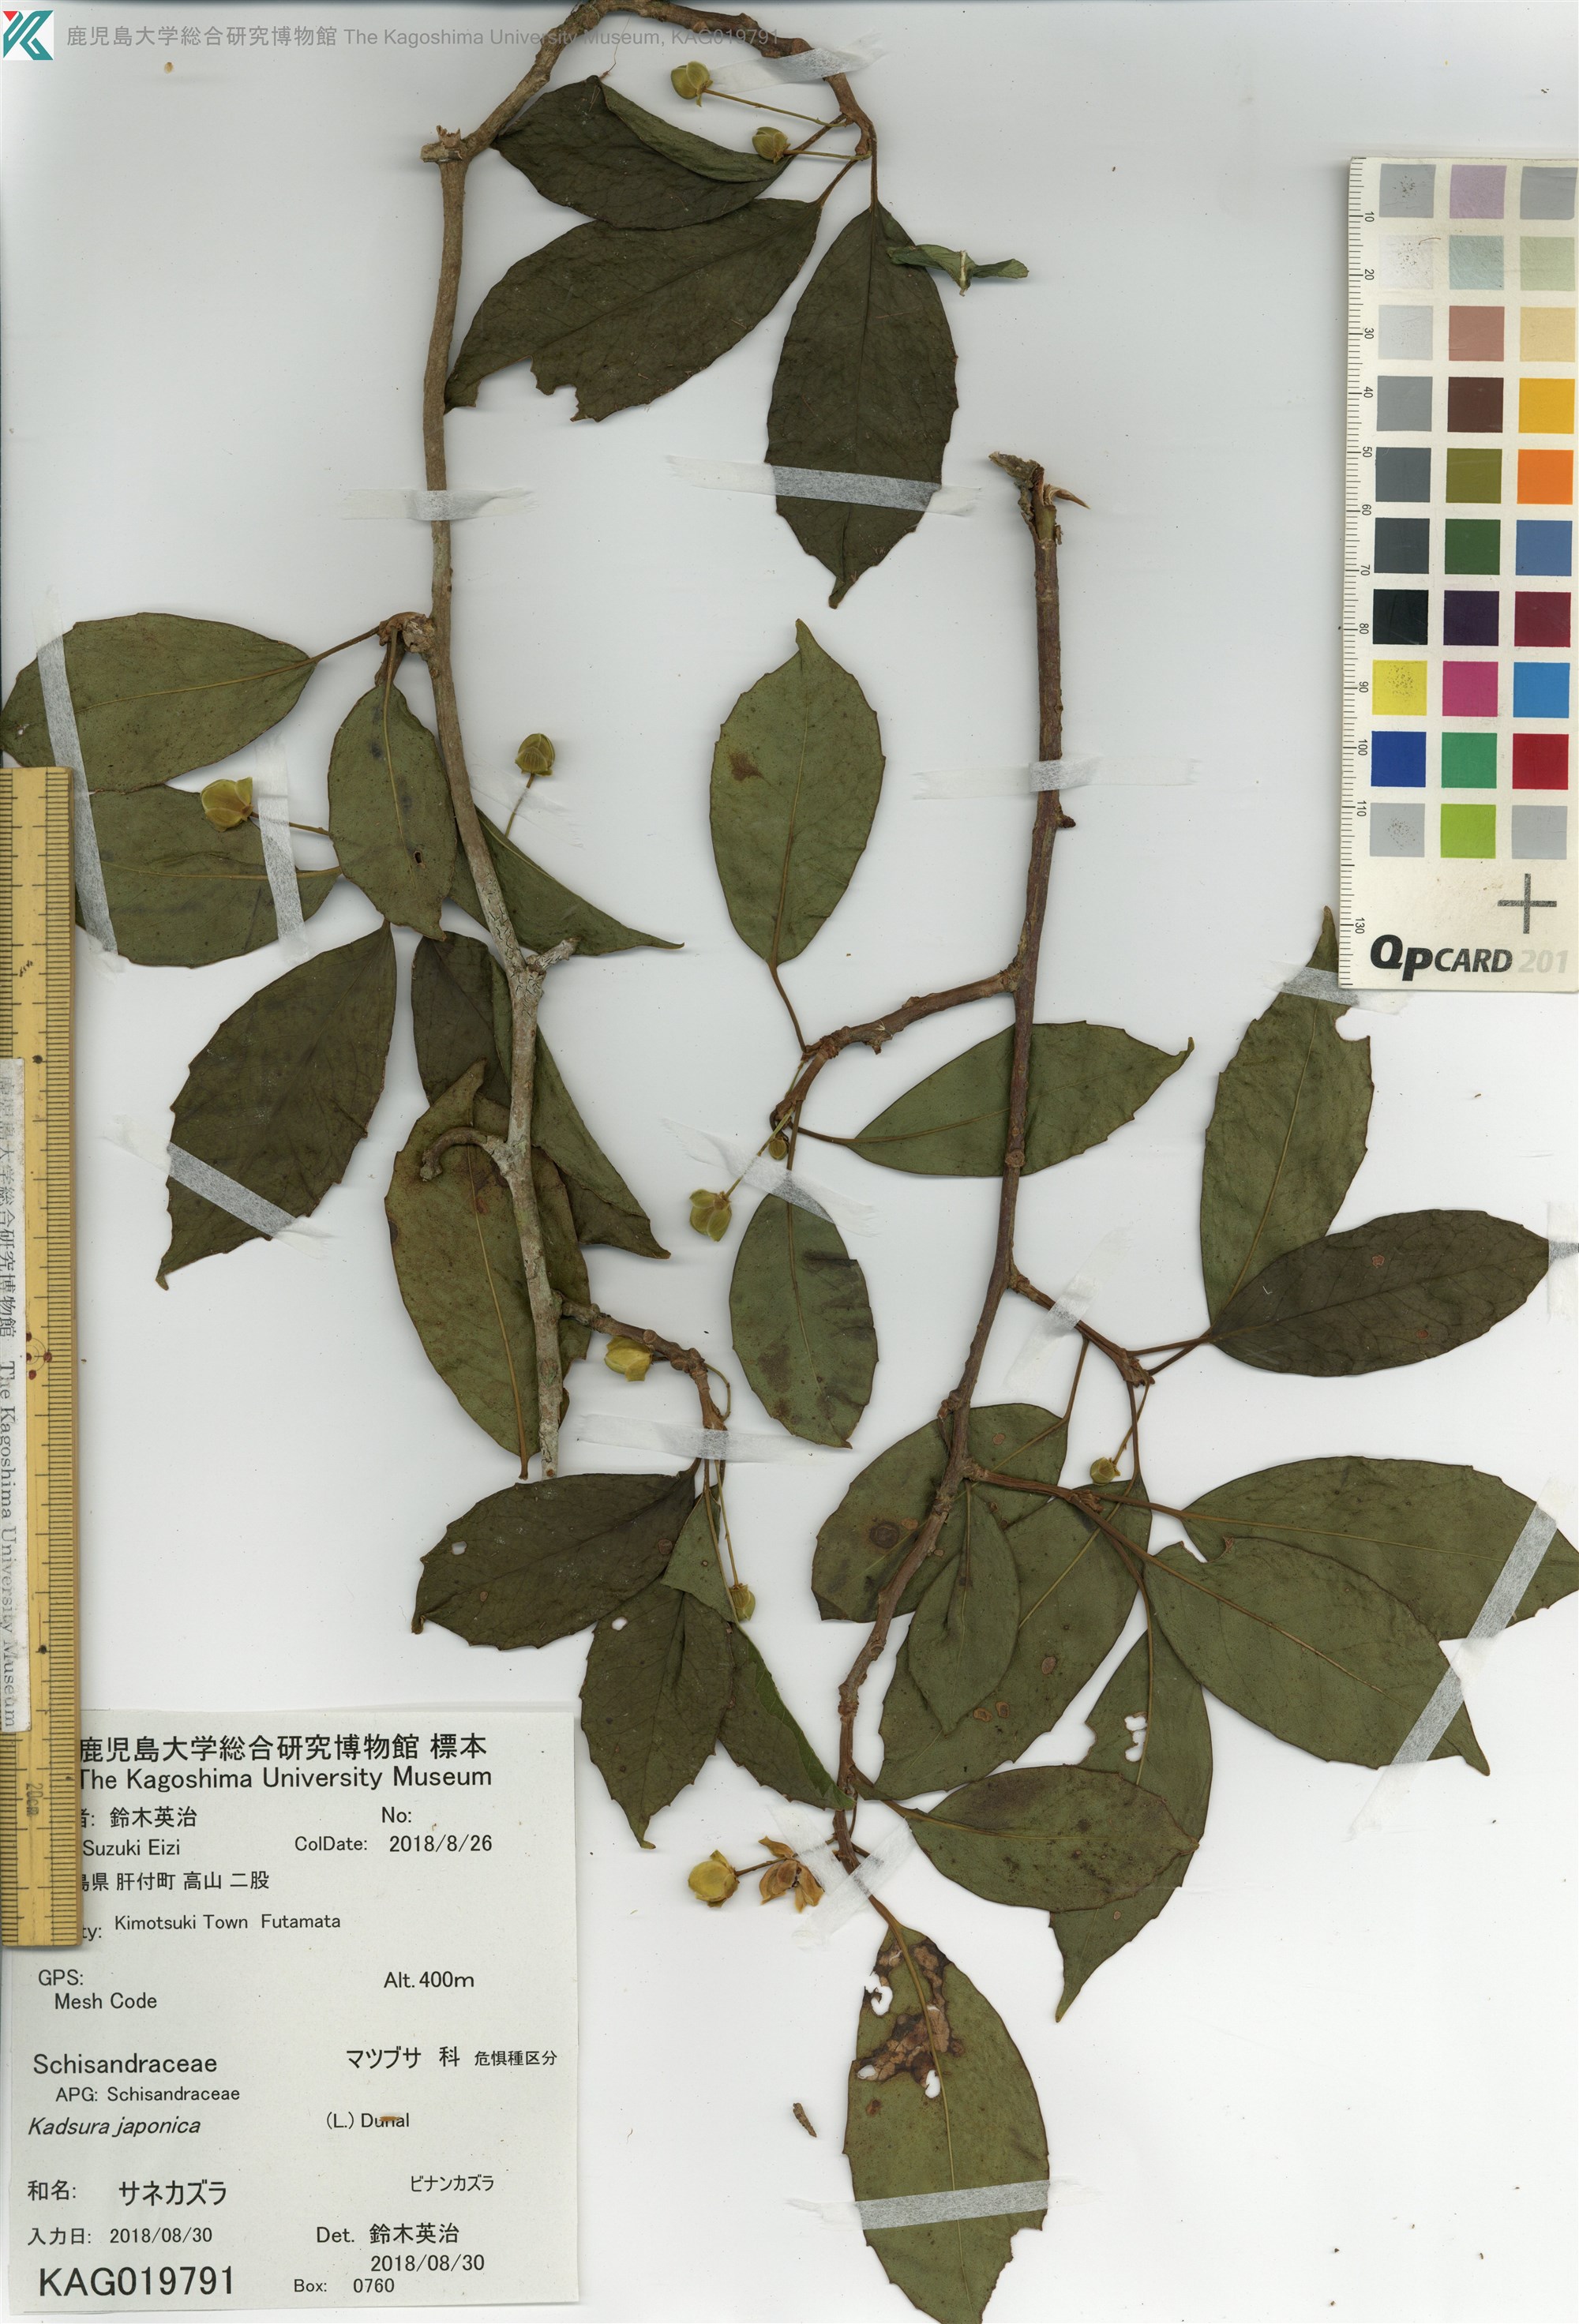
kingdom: Plantae
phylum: Tracheophyta
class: Magnoliopsida
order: Austrobaileyales
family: Schisandraceae
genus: Kadsura
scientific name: Kadsura japonica
